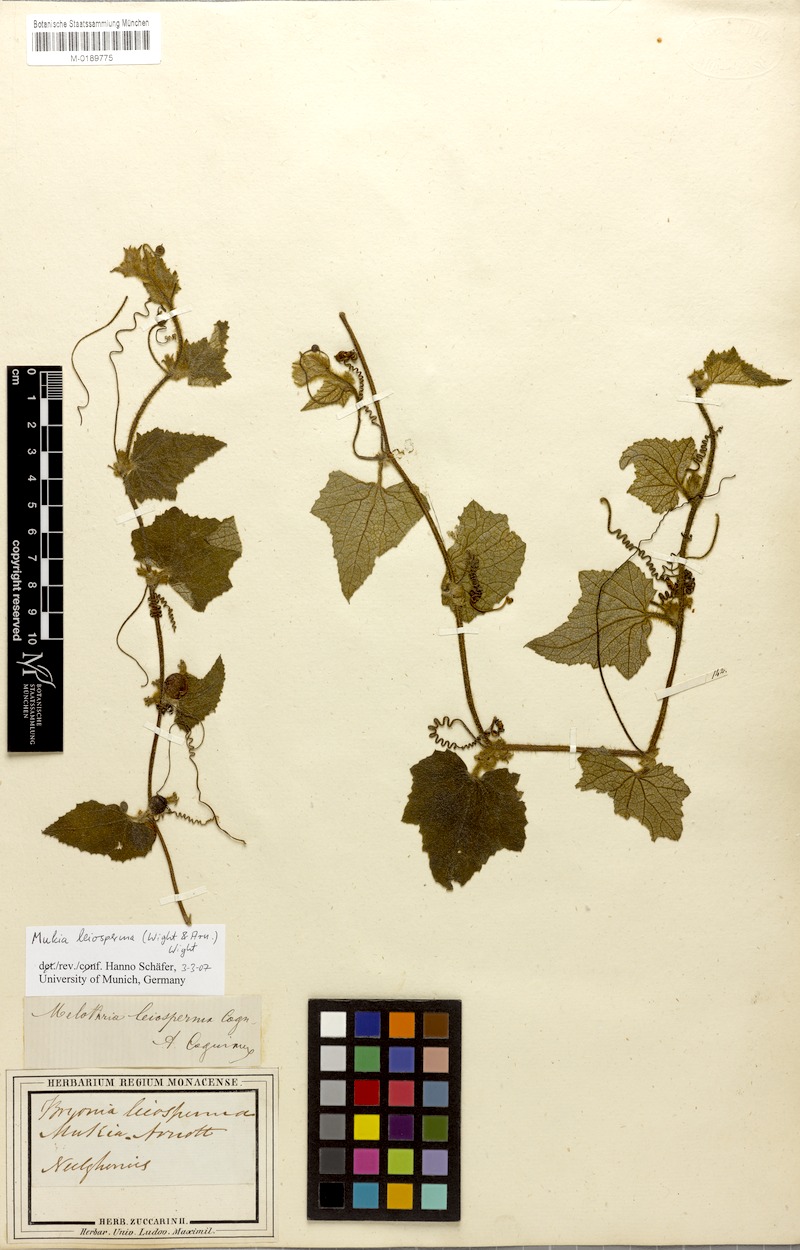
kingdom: Plantae
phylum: Tracheophyta
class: Magnoliopsida
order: Cucurbitales
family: Cucurbitaceae
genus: Cucumis
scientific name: Cucumis leiospermus
